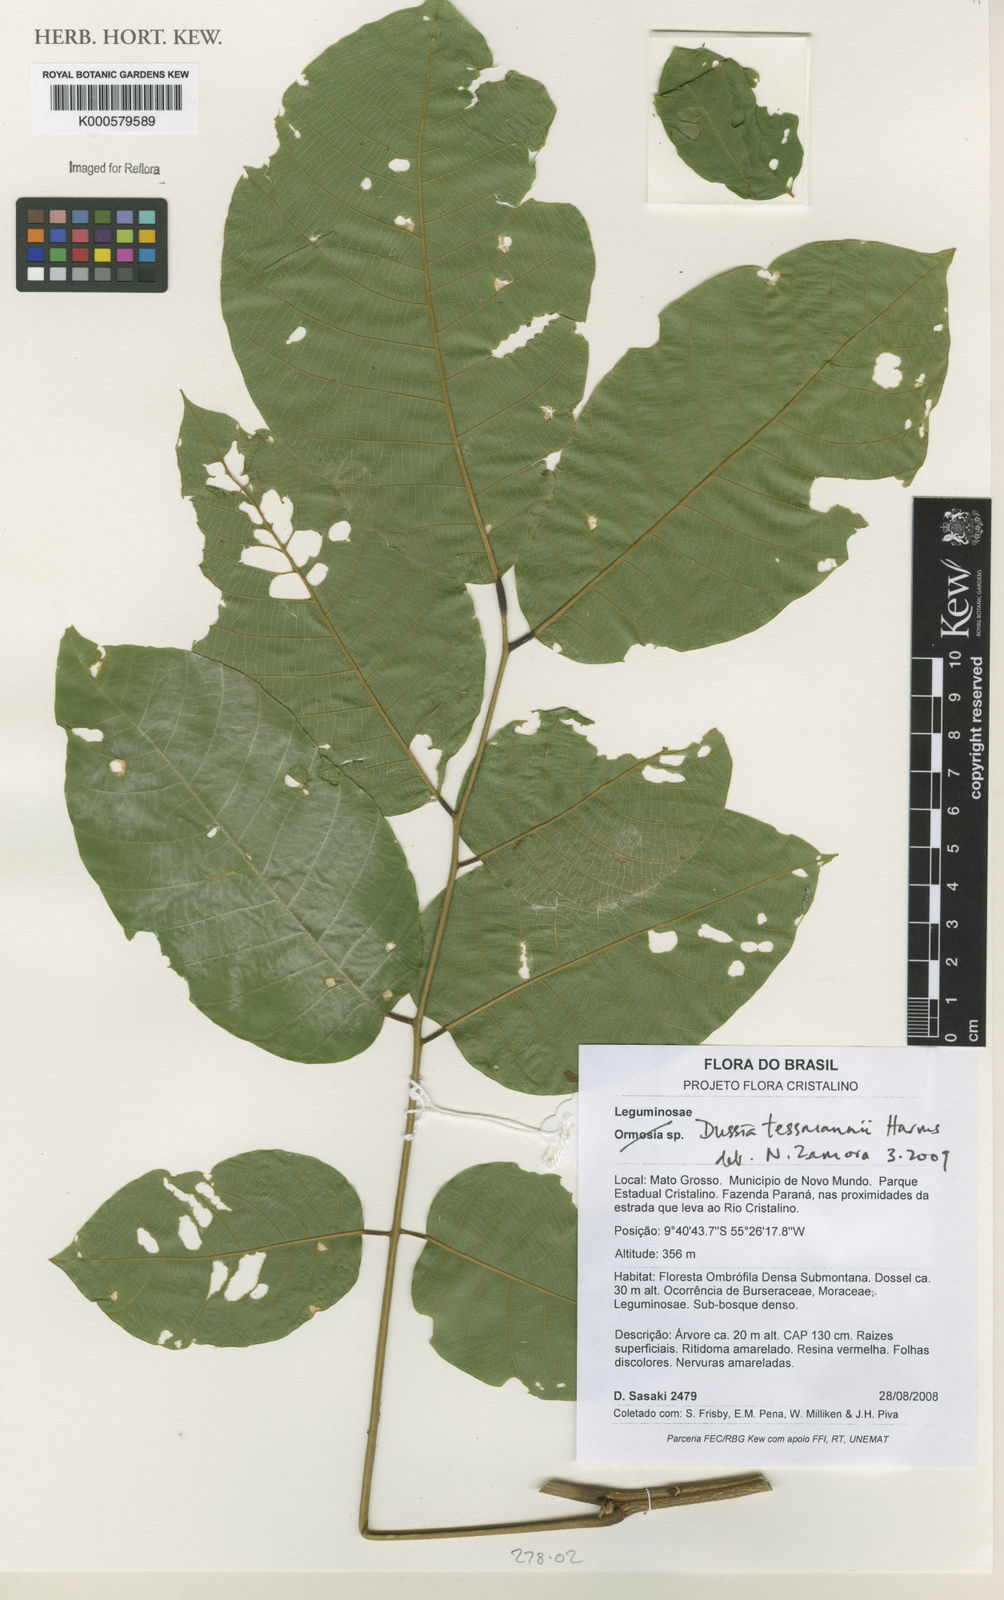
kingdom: Plantae
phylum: Tracheophyta
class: Magnoliopsida
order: Fabales
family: Fabaceae
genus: Dussia
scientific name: Dussia tessmannii
